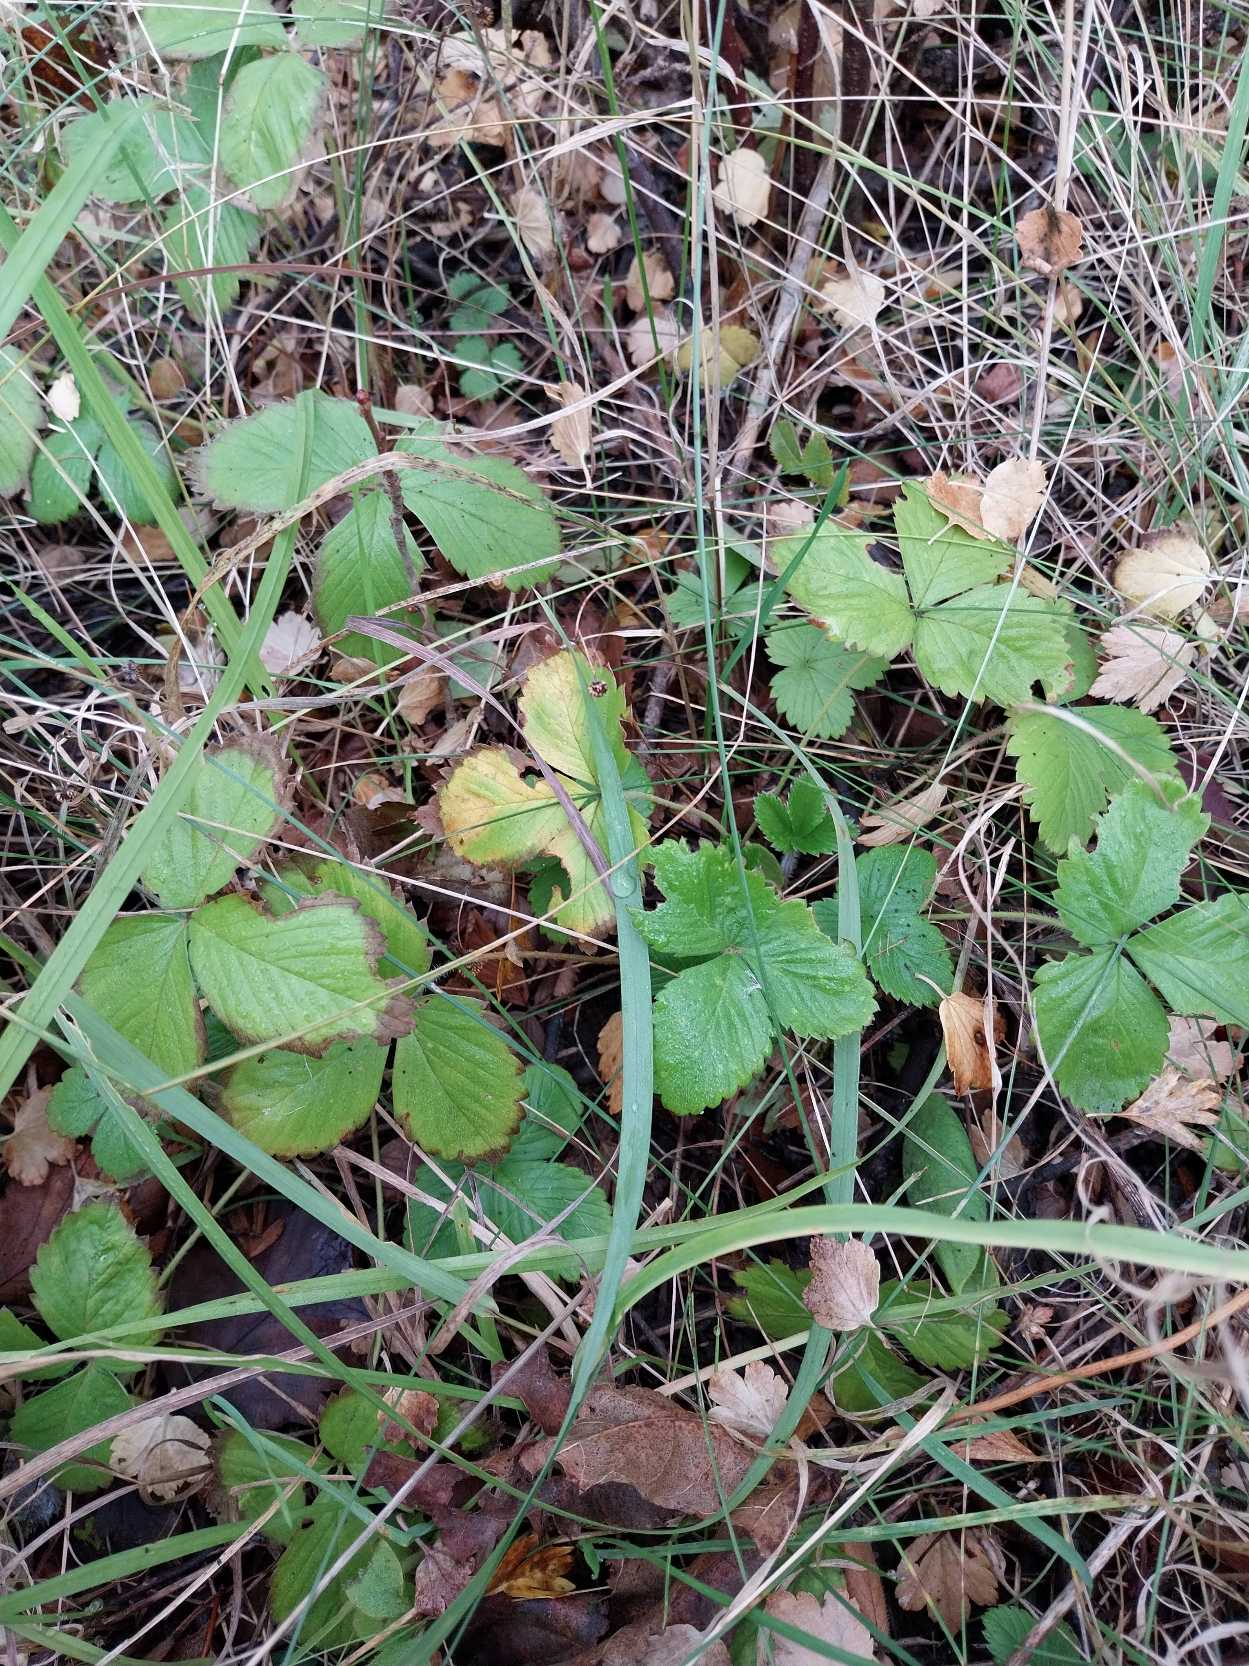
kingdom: Plantae
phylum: Tracheophyta
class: Magnoliopsida
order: Rosales
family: Rosaceae
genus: Fragaria
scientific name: Fragaria vesca
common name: Skov-jordbær
